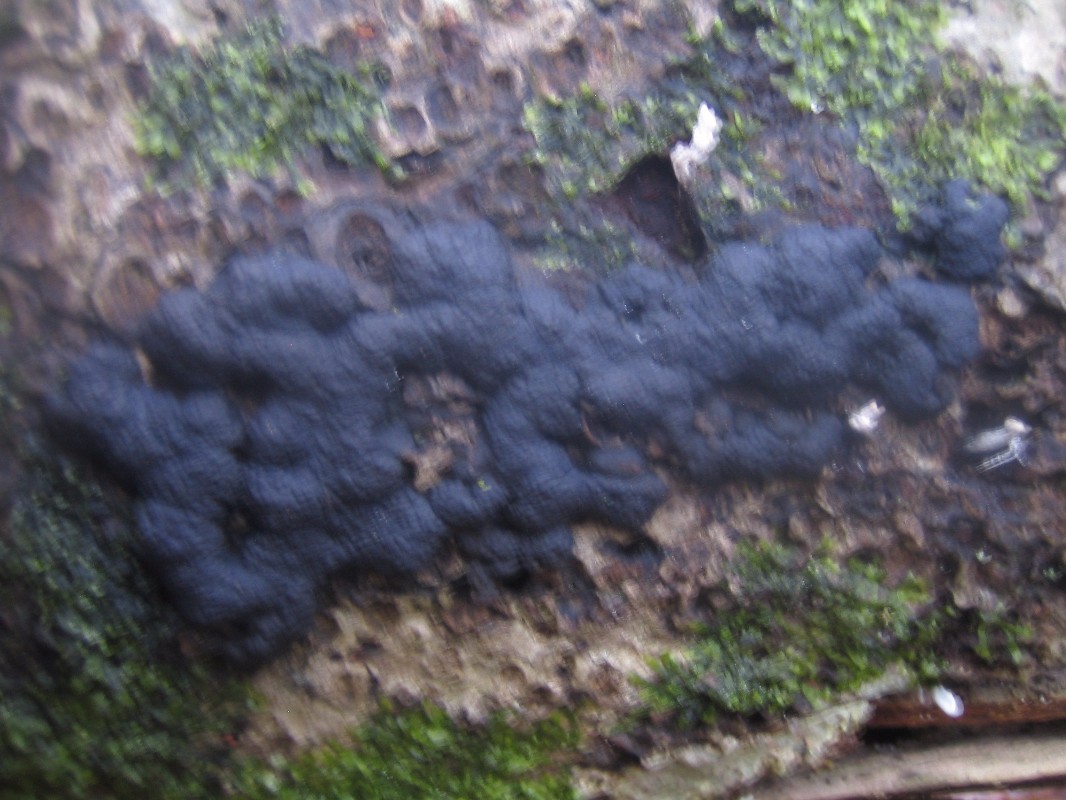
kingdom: Fungi
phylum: Ascomycota
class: Sordariomycetes
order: Xylariales
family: Hypoxylaceae
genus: Jackrogersella
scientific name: Jackrogersella cohaerens
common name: sammenflydende kulbær
